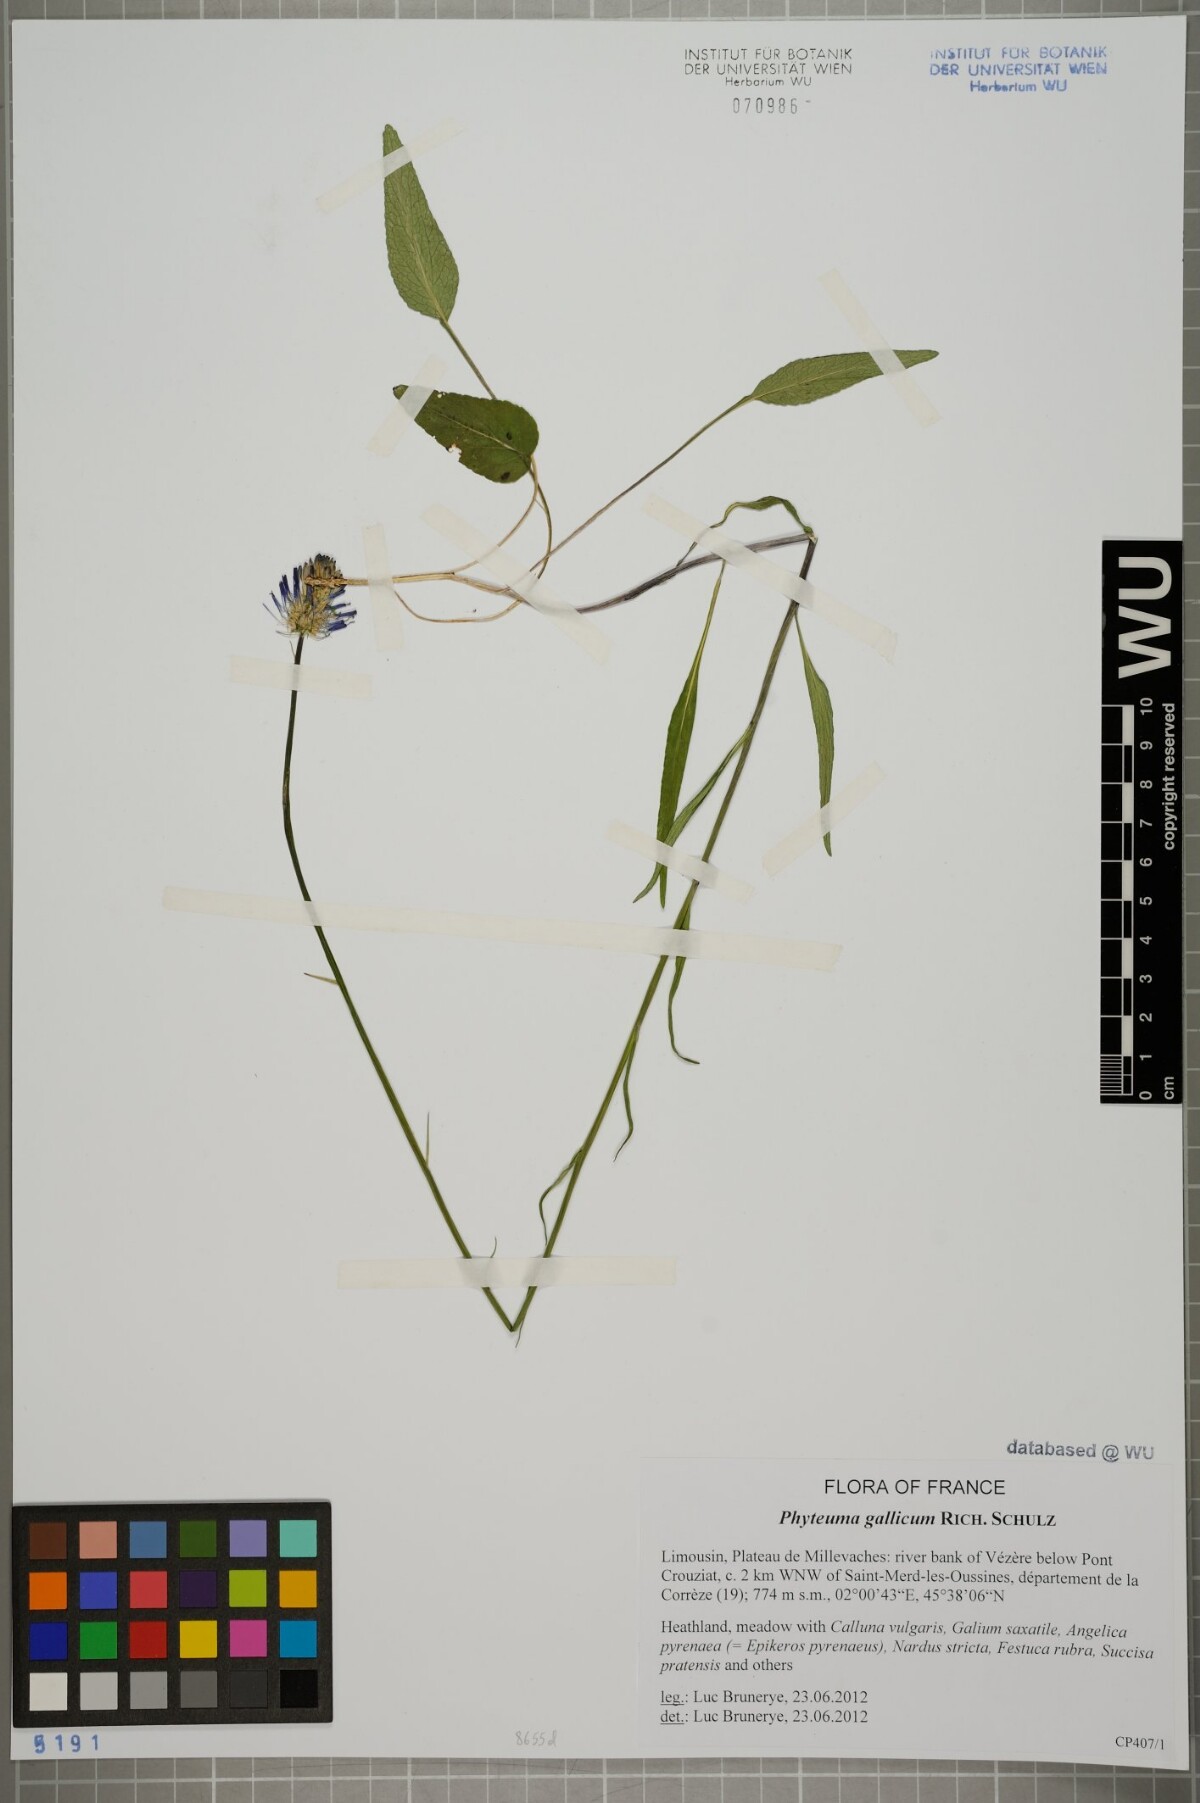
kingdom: Plantae
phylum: Tracheophyta
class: Magnoliopsida
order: Asterales
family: Campanulaceae
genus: Phyteuma
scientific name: Phyteuma gallicum
